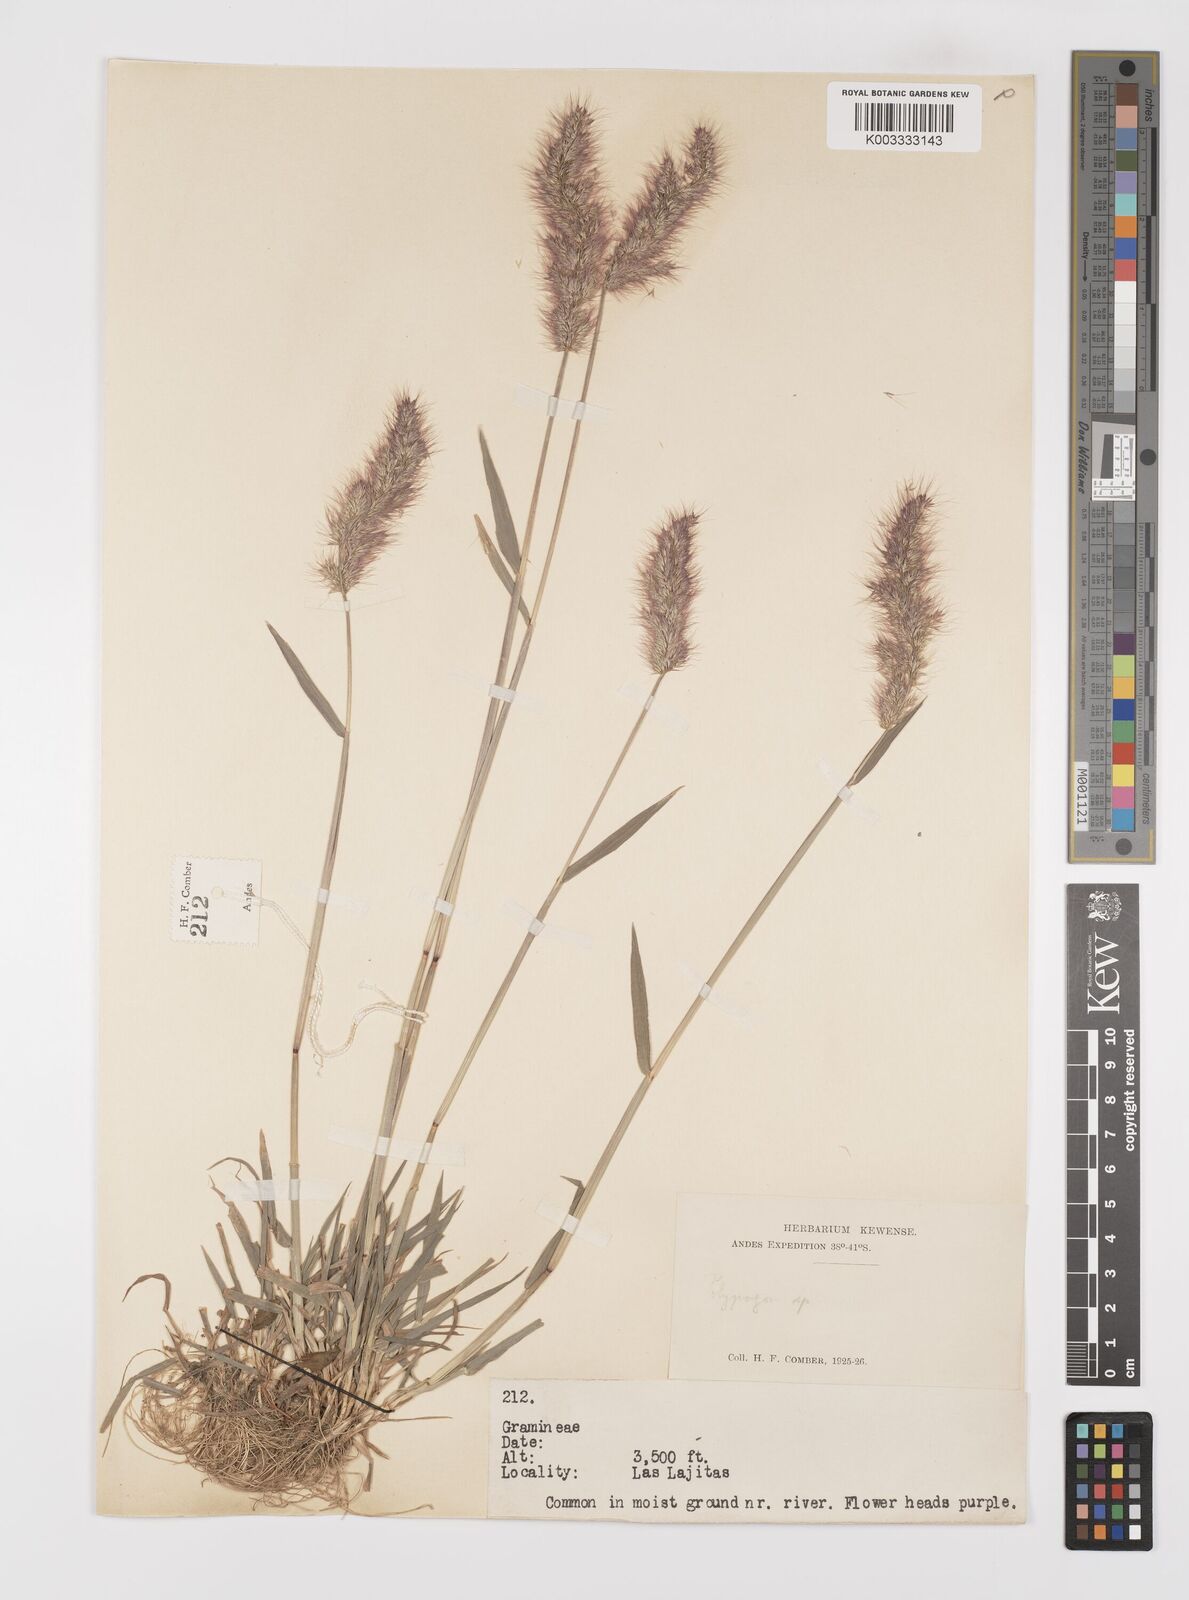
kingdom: Plantae
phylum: Tracheophyta
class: Liliopsida
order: Poales
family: Poaceae
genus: Polypogon
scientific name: Polypogon australis
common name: Chilean rabbitsfoot grass
